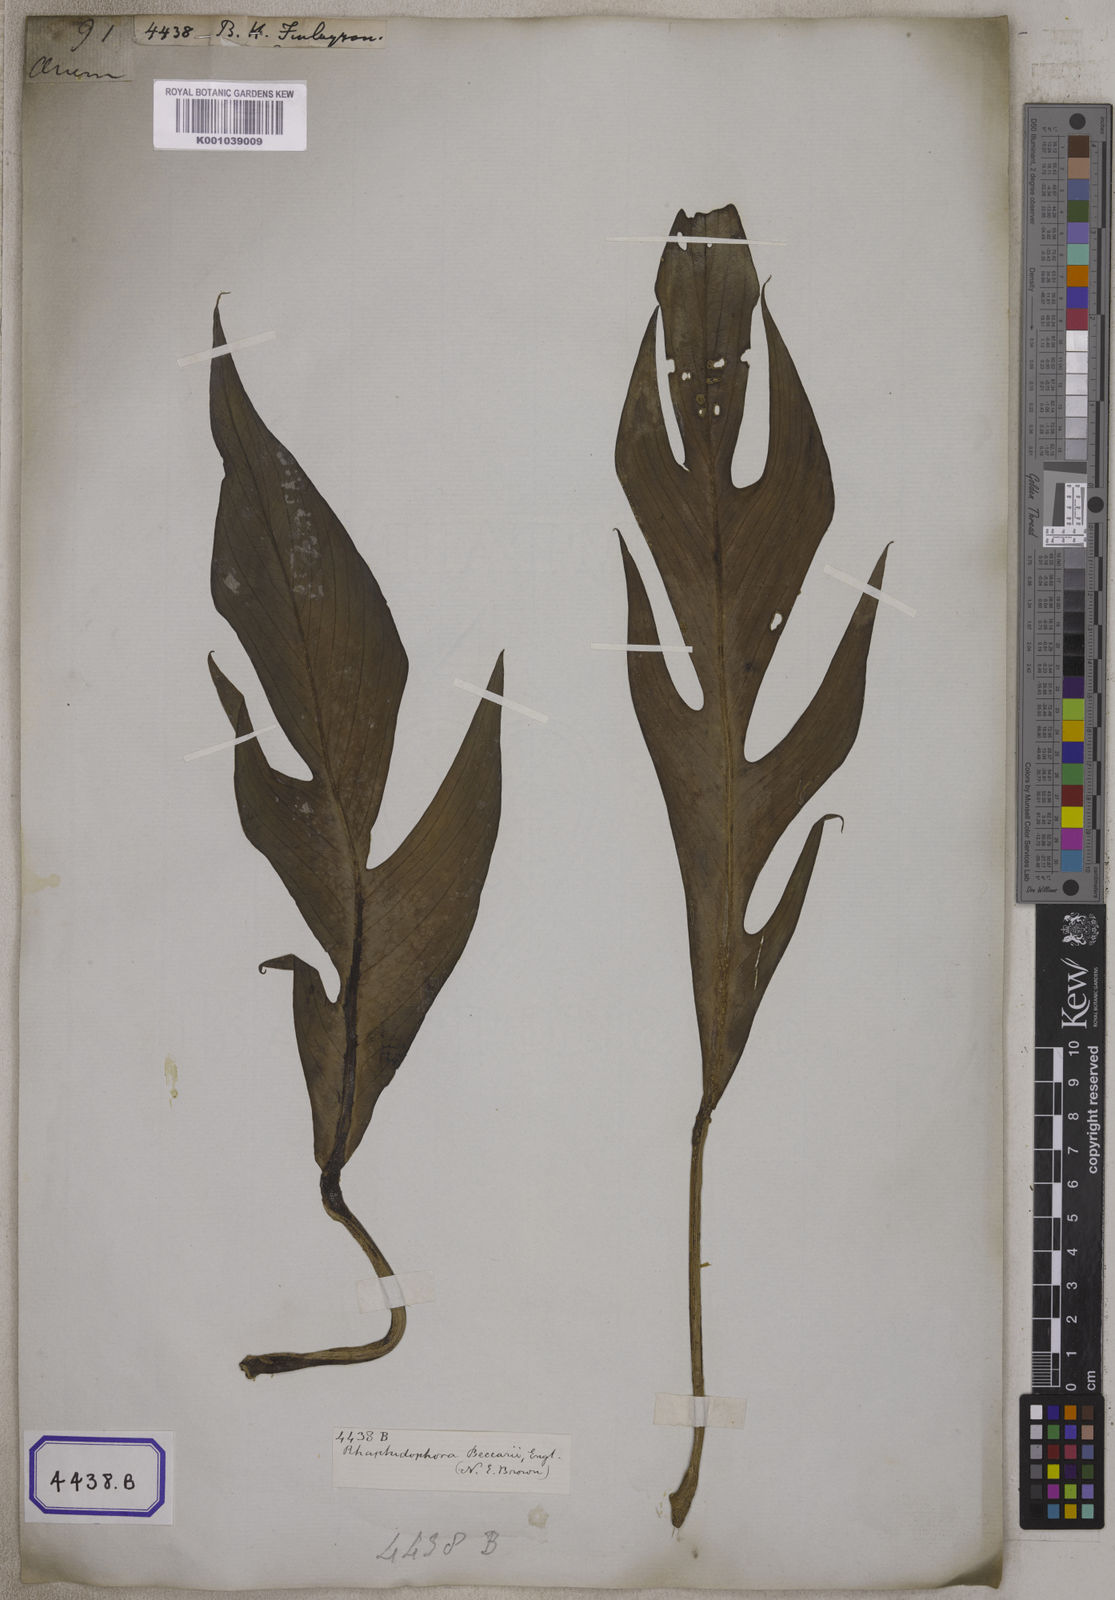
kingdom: Plantae
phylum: Tracheophyta
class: Liliopsida
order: Alismatales
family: Araceae
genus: Pothos
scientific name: Pothos
